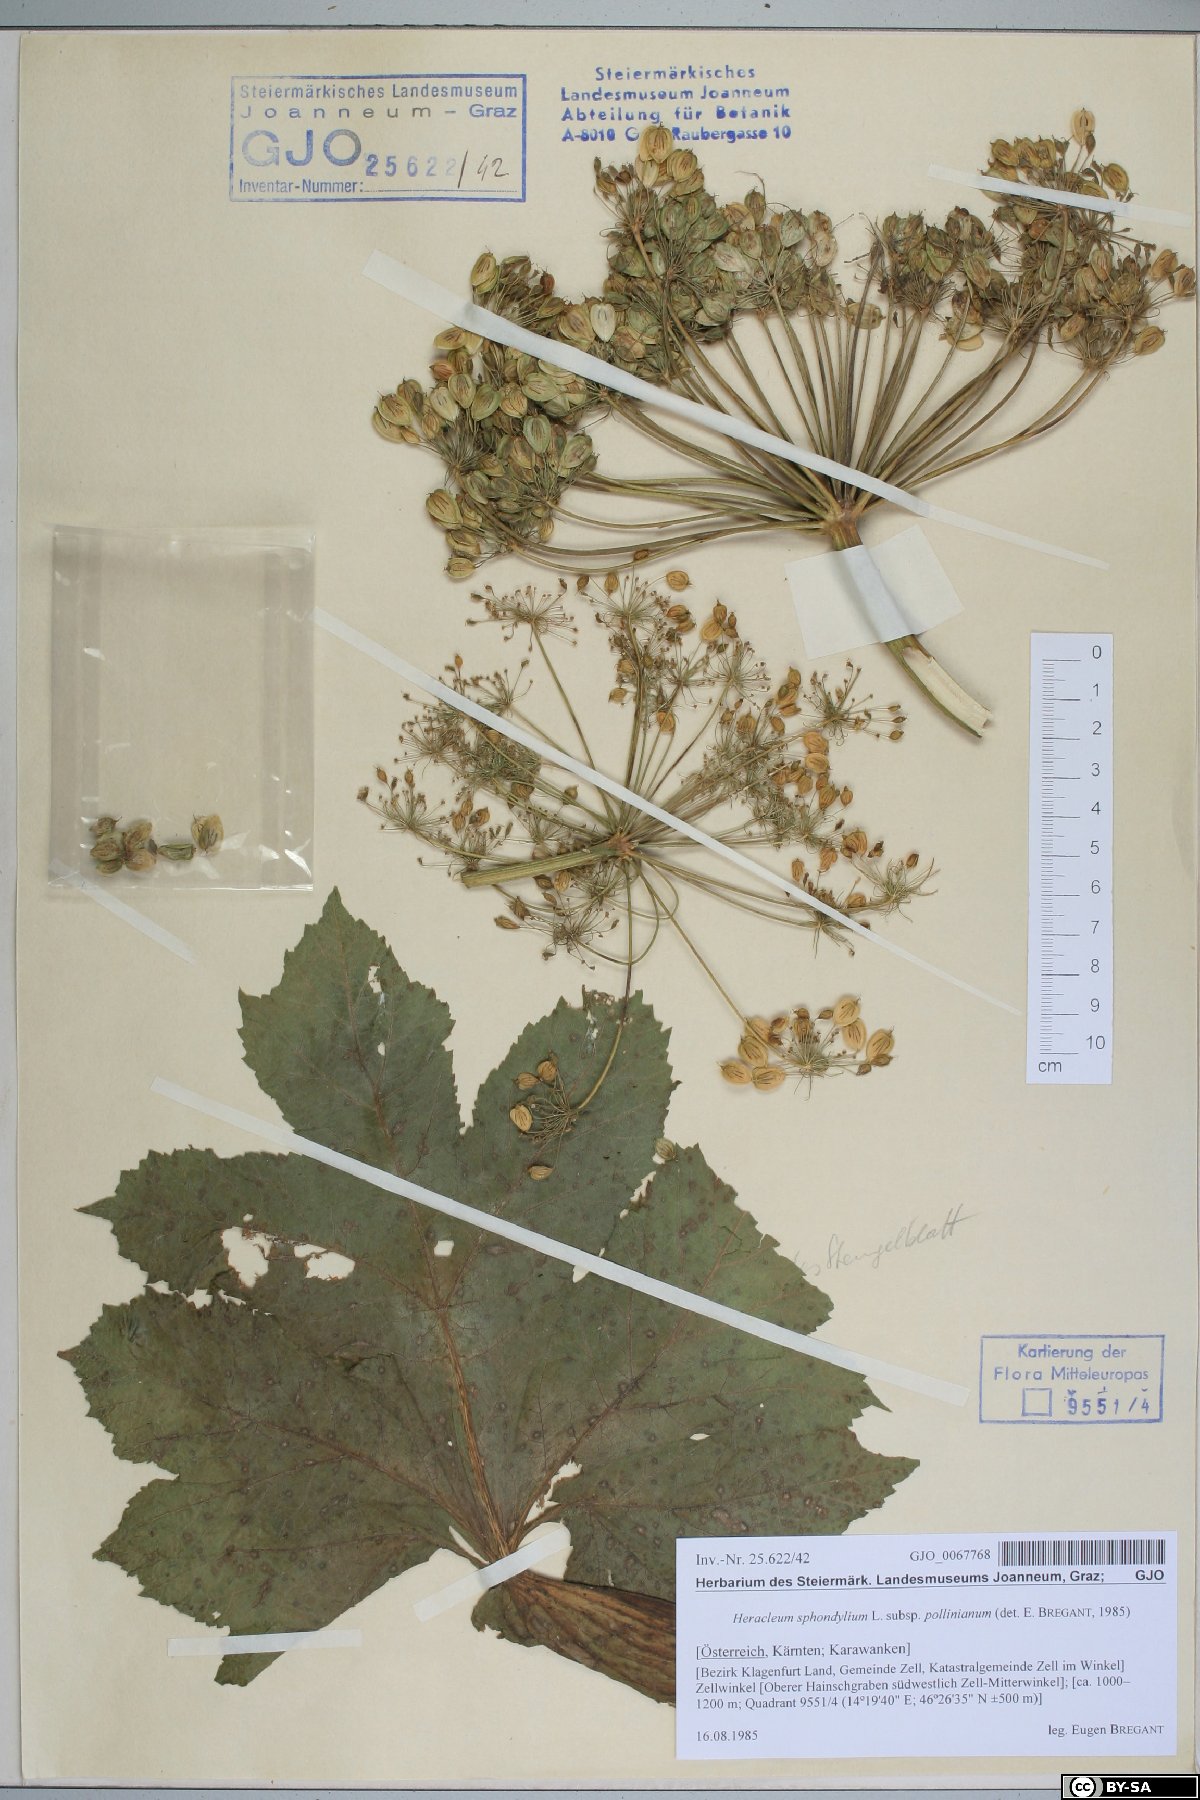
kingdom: Plantae
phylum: Tracheophyta
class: Magnoliopsida
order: Apiales
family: Apiaceae
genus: Heracleum
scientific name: Heracleum sphondylium
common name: Hogweed
